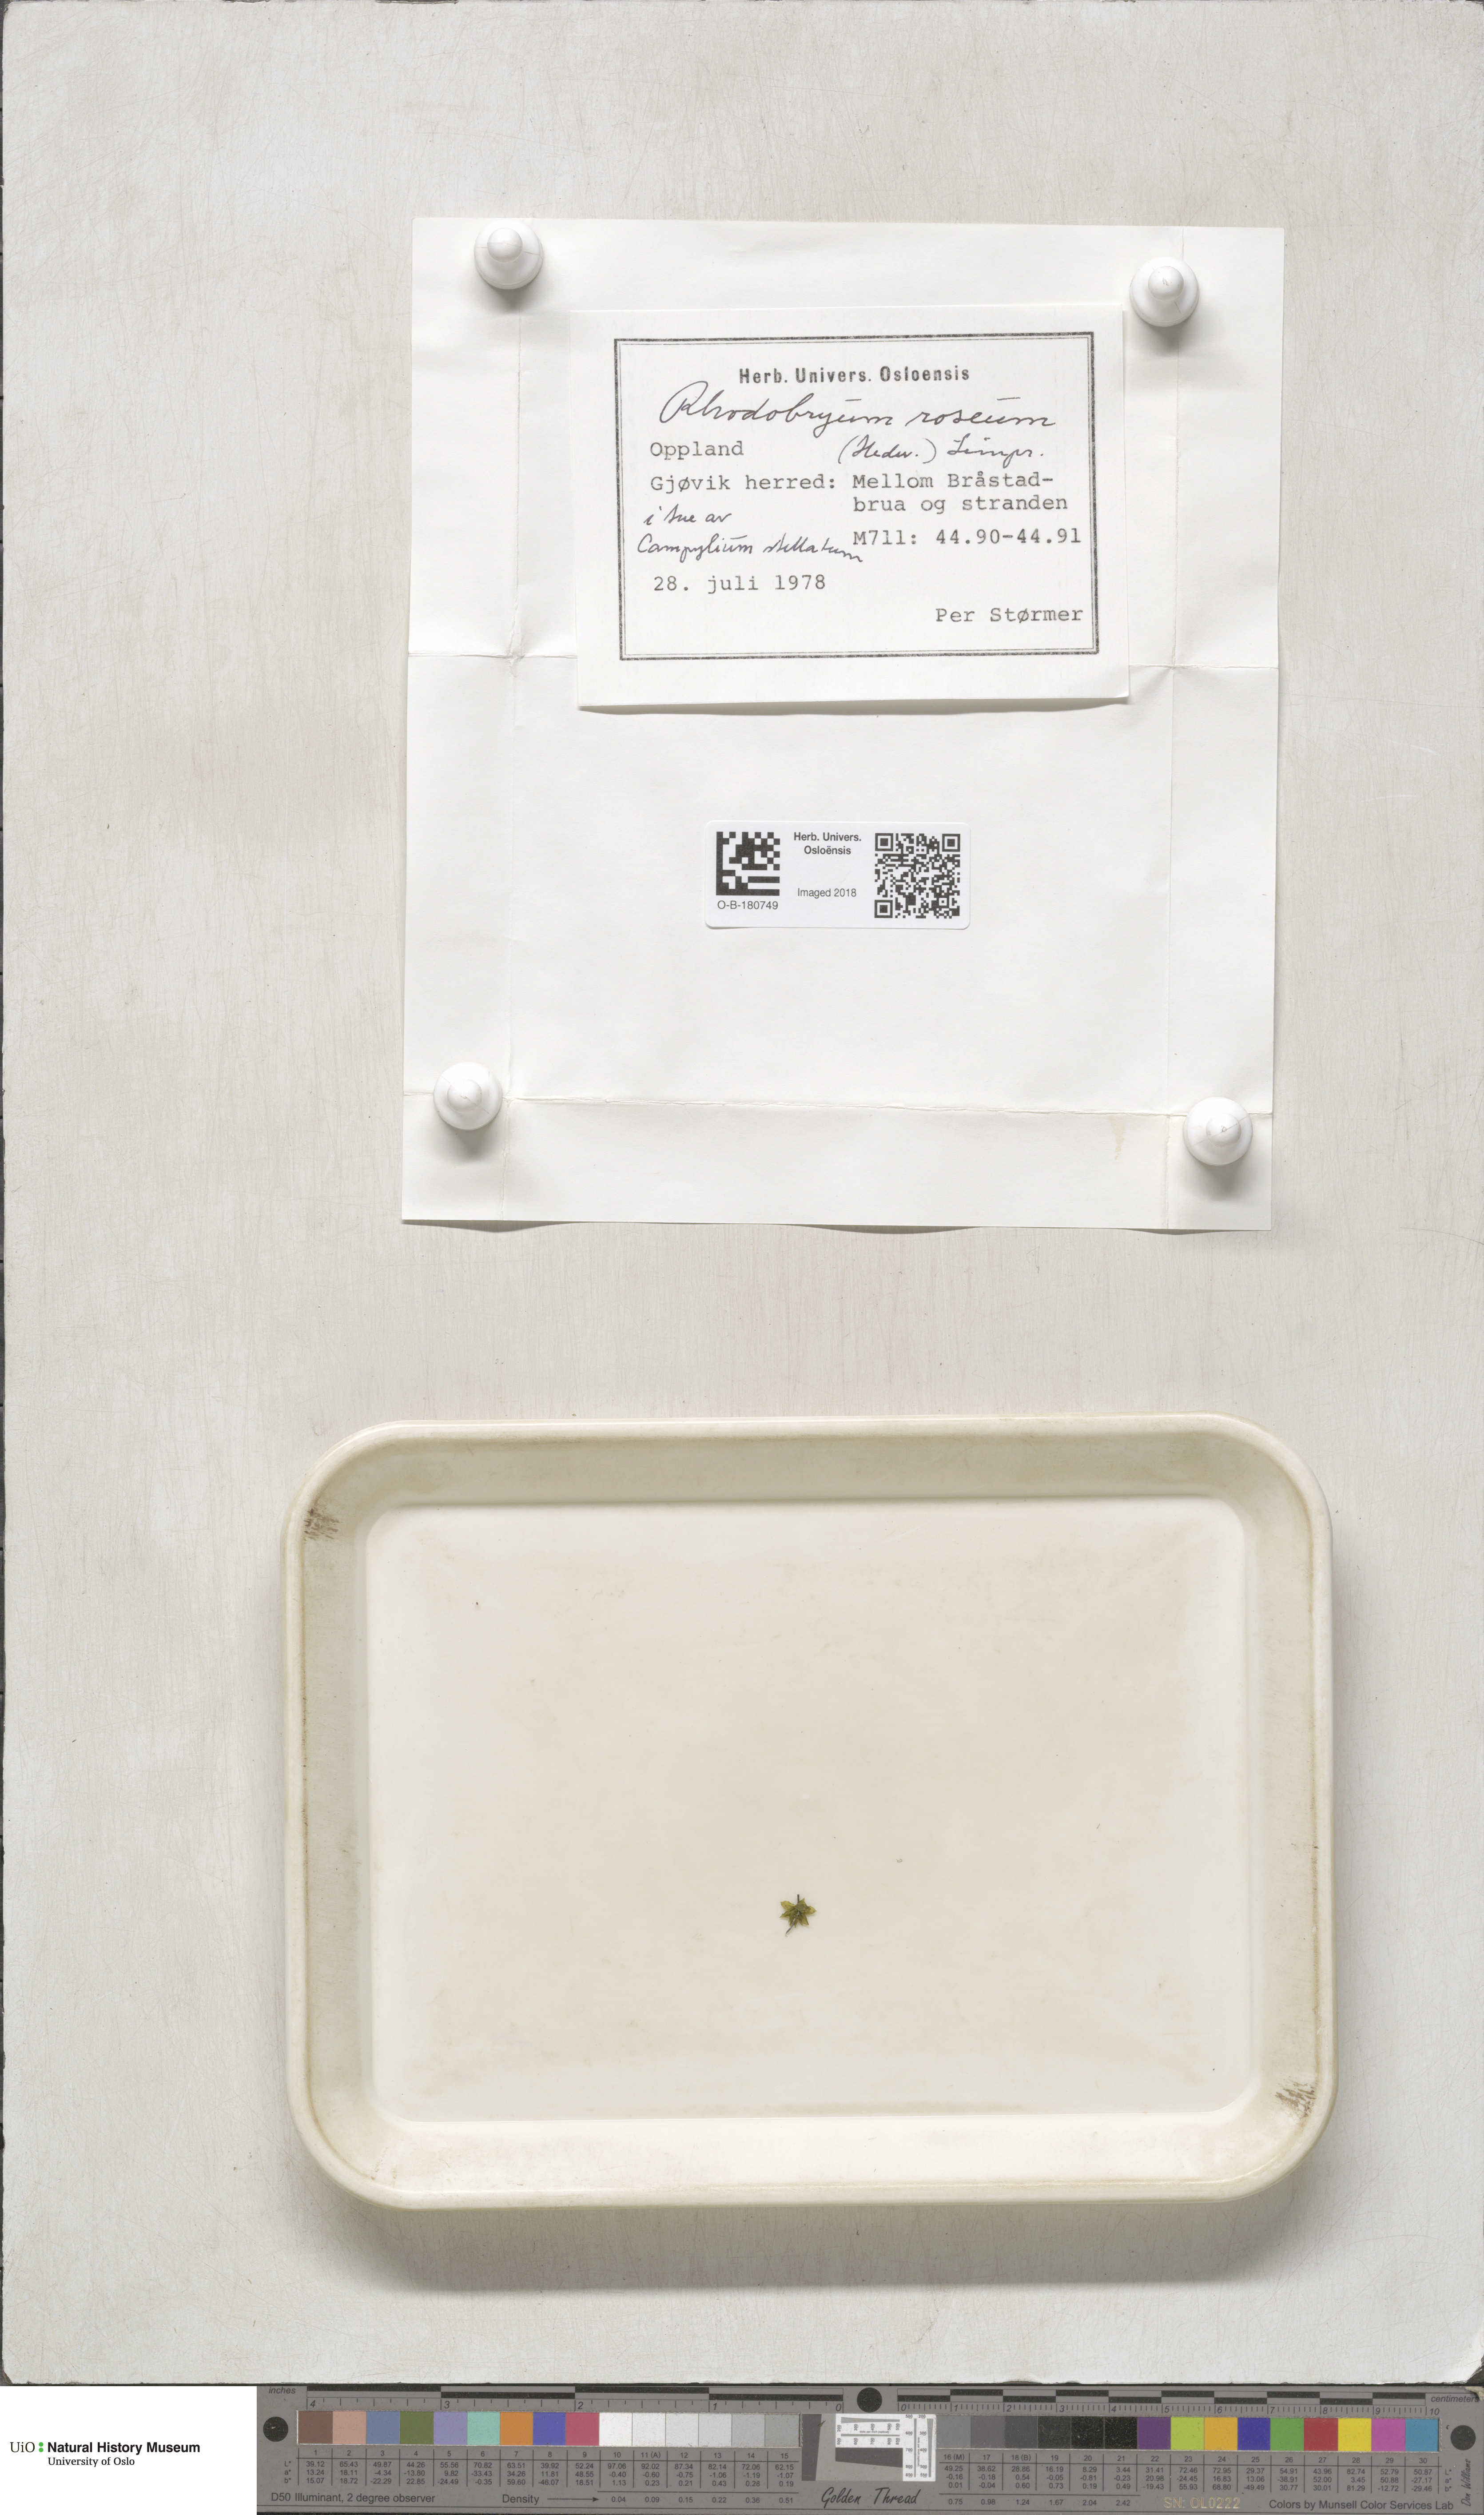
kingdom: Plantae
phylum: Bryophyta
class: Bryopsida
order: Bryales
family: Bryaceae
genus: Rhodobryum
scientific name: Rhodobryum roseum
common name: Rose-moss
